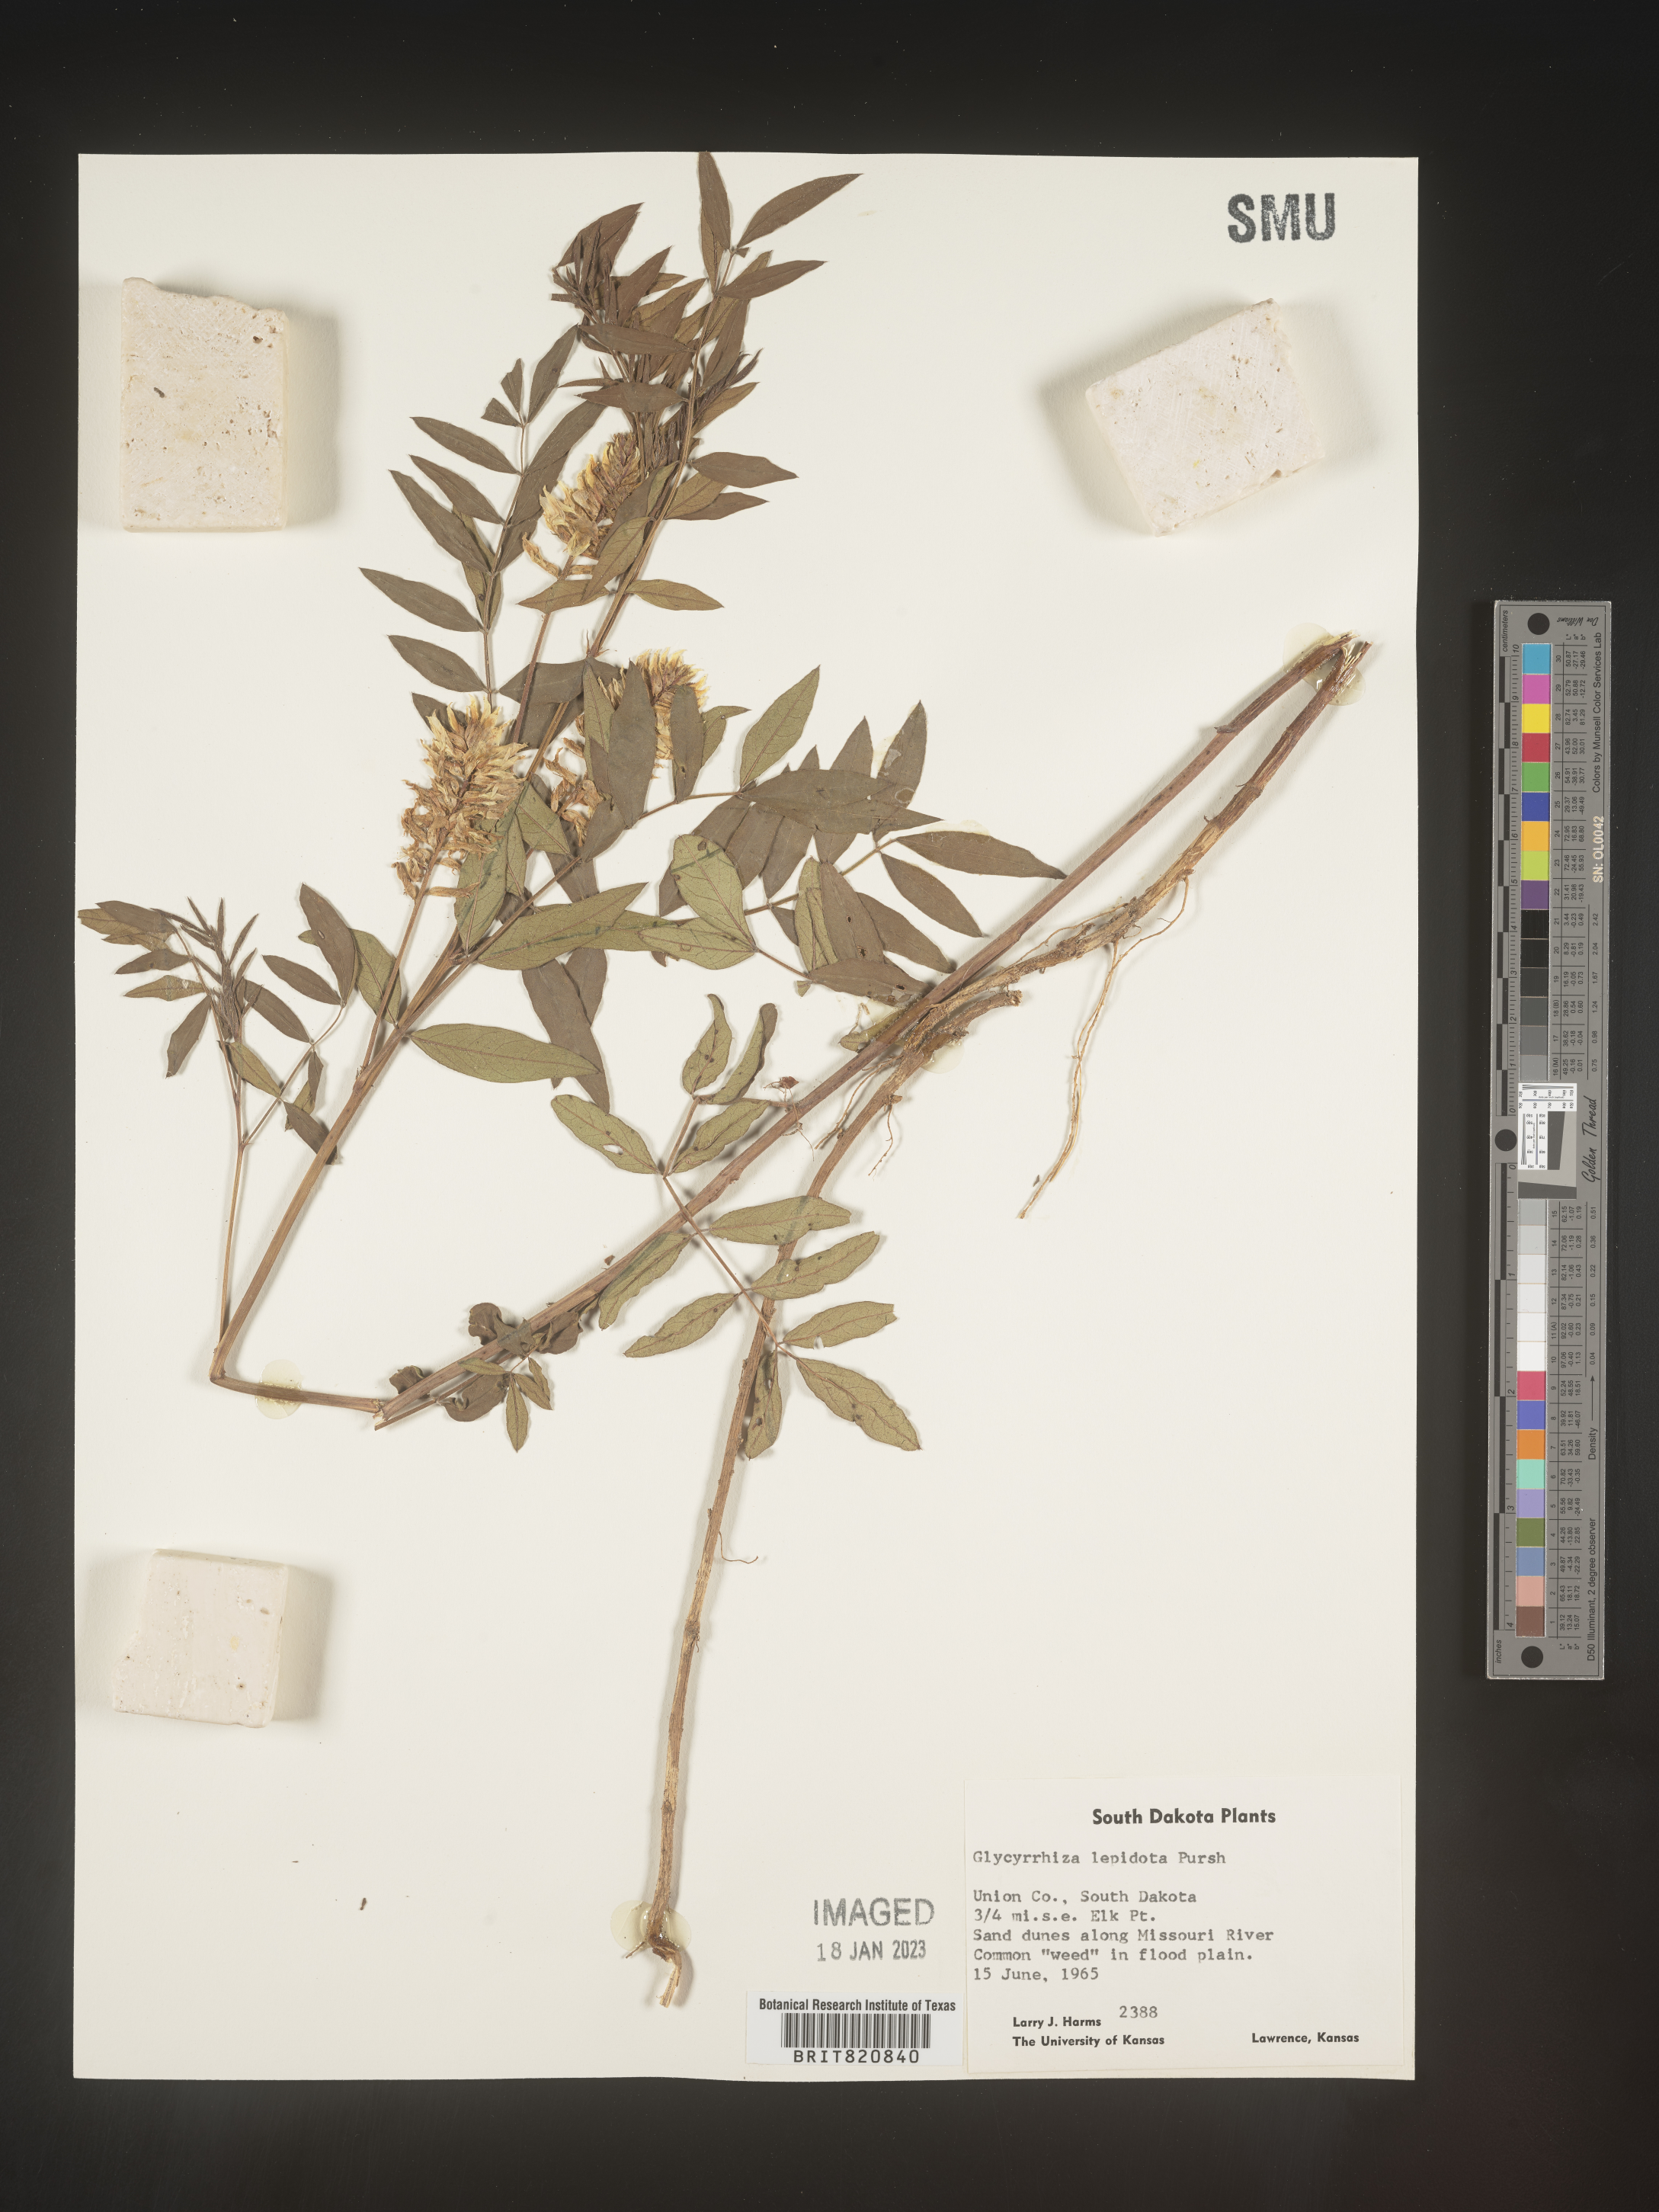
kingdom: Plantae
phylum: Tracheophyta
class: Magnoliopsida
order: Fabales
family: Fabaceae
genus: Glycyrrhiza
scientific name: Glycyrrhiza lepidota
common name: American liquorice
